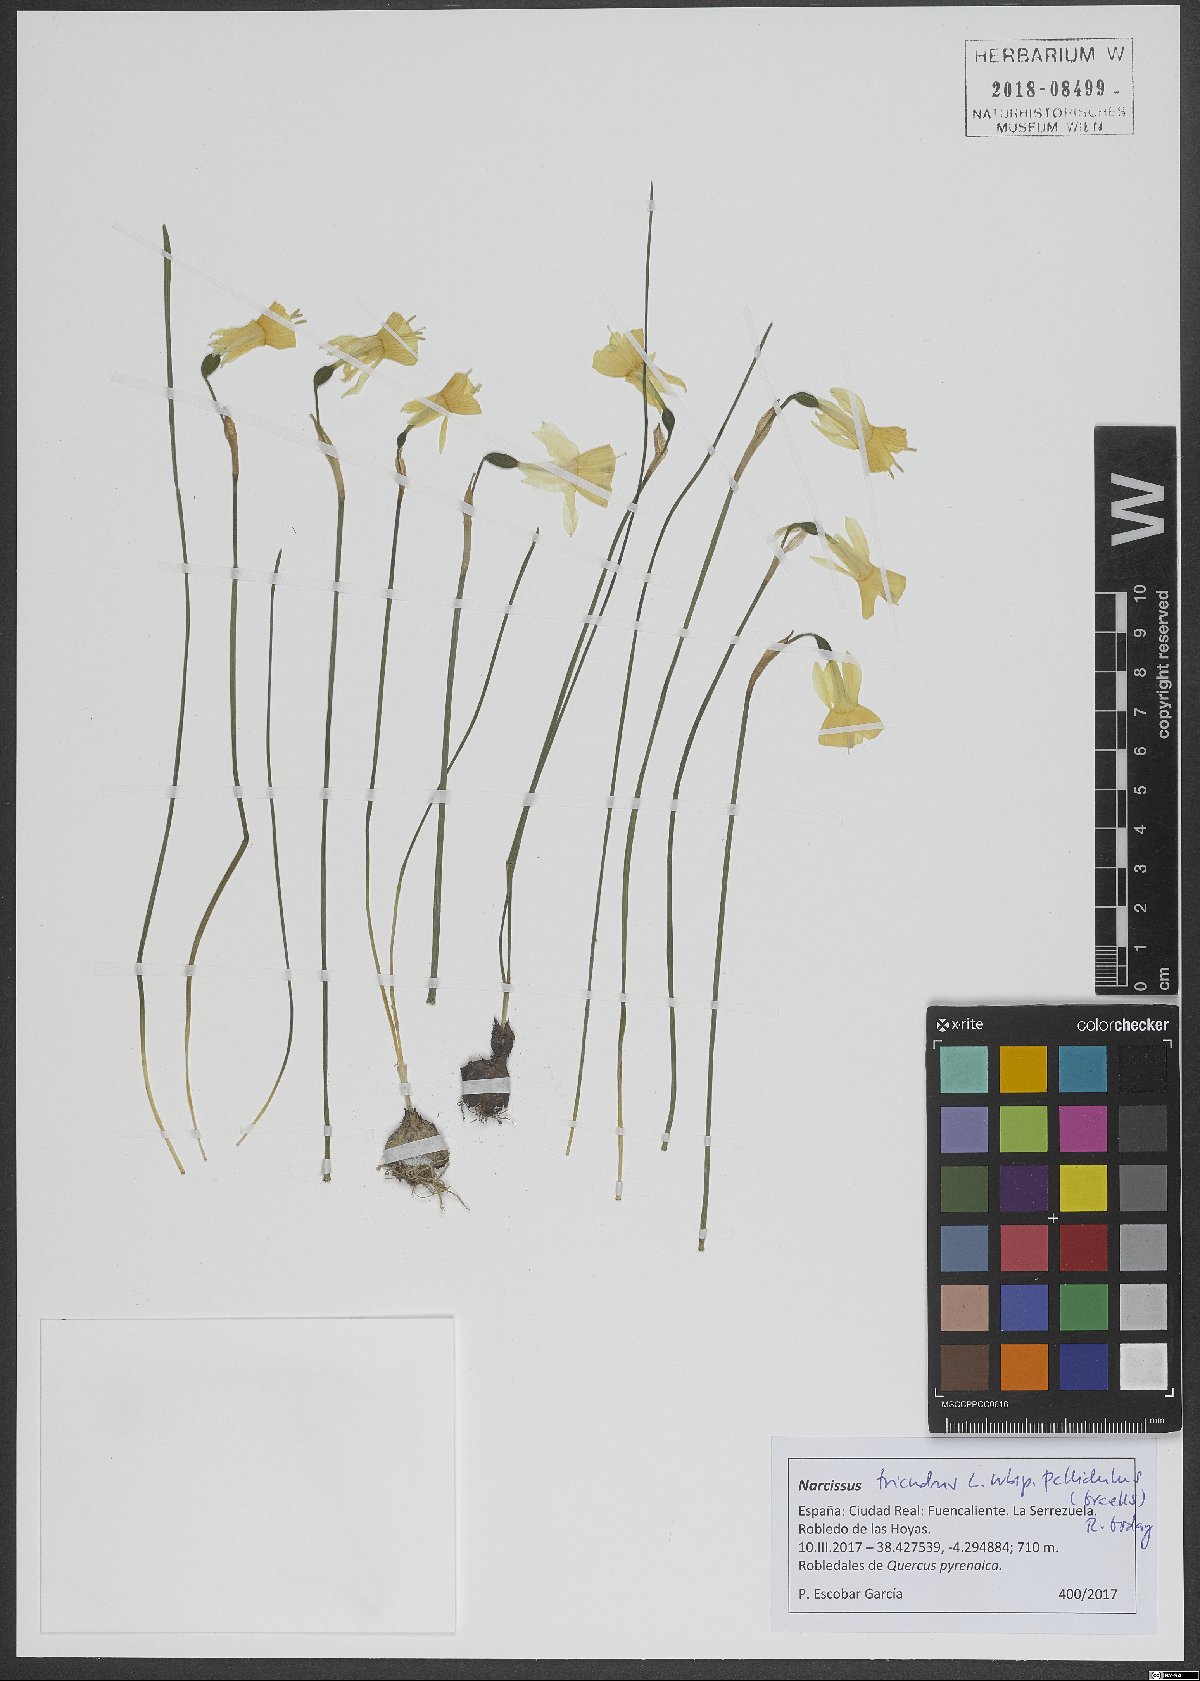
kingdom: Plantae
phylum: Tracheophyta
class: Liliopsida
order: Asparagales
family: Amaryllidaceae
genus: Narcissus
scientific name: Narcissus triandrus
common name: Angel's-tears
